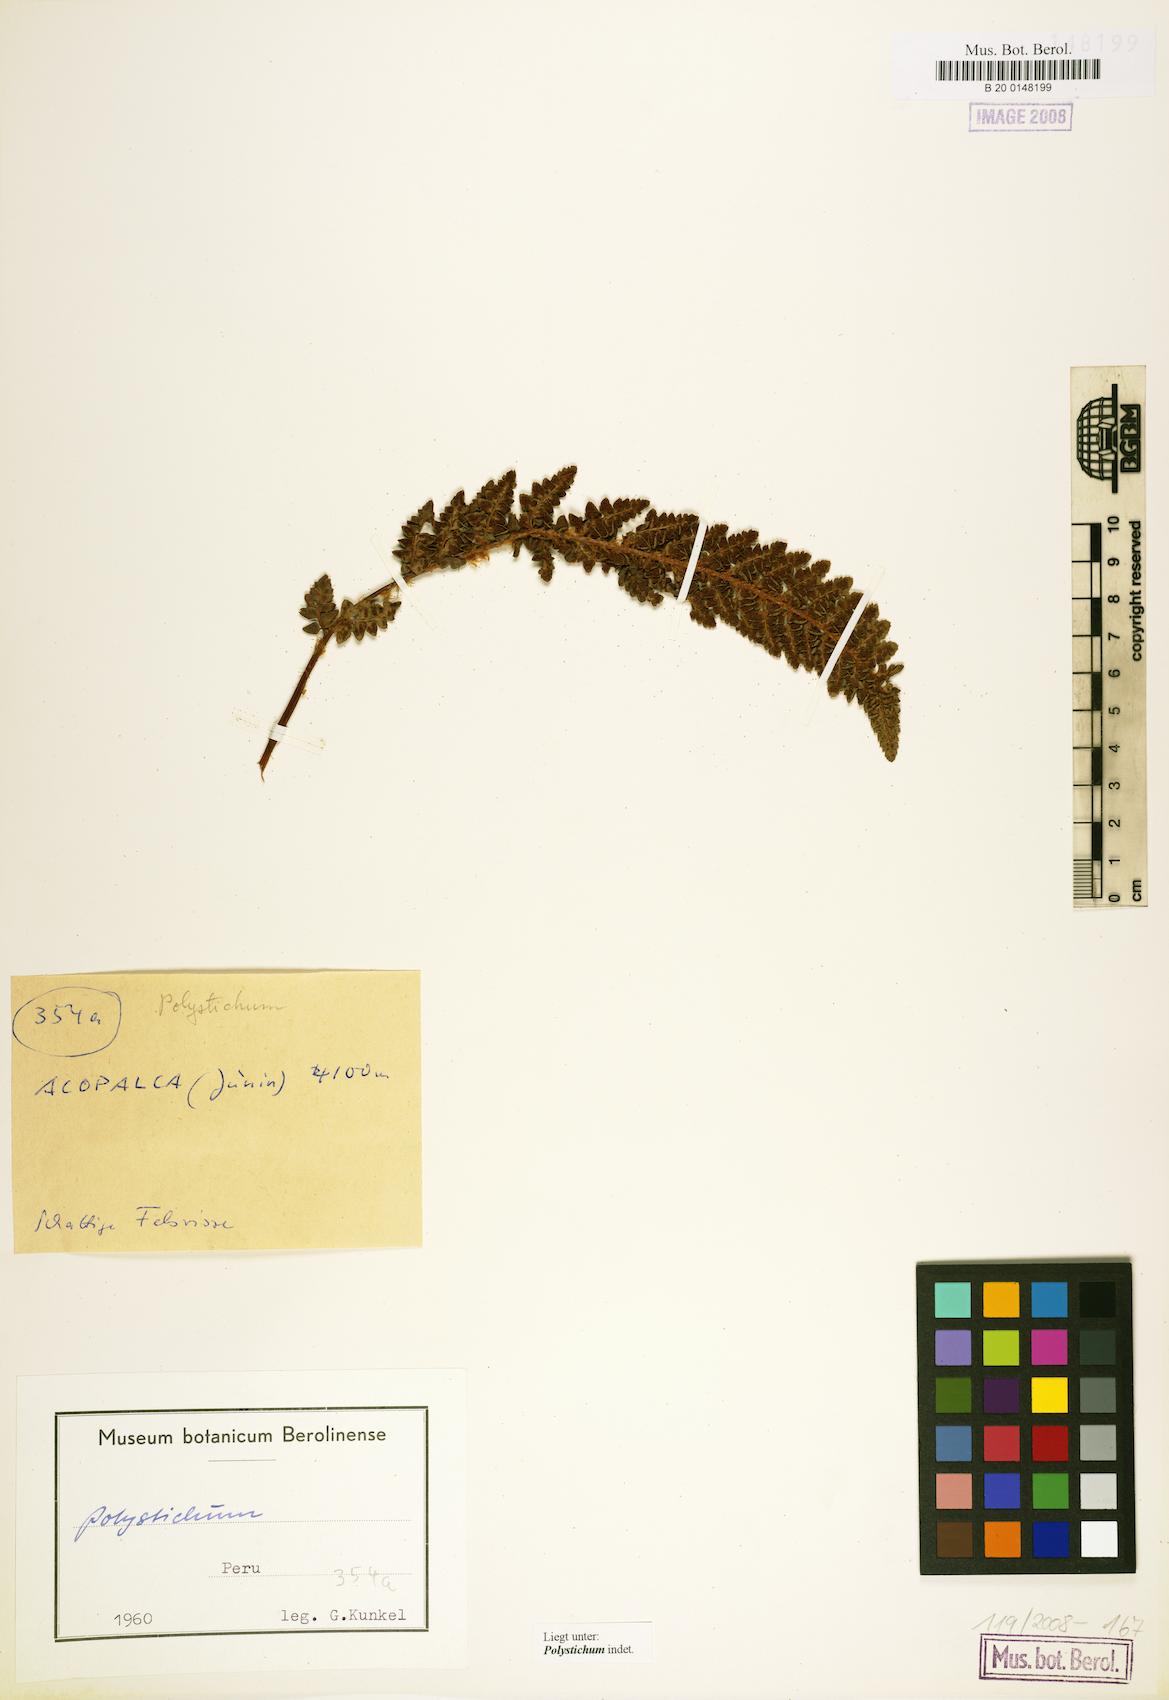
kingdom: Plantae
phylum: Tracheophyta
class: Polypodiopsida
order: Polypodiales
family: Dryopteridaceae
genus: Polystichum
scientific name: Polystichum
